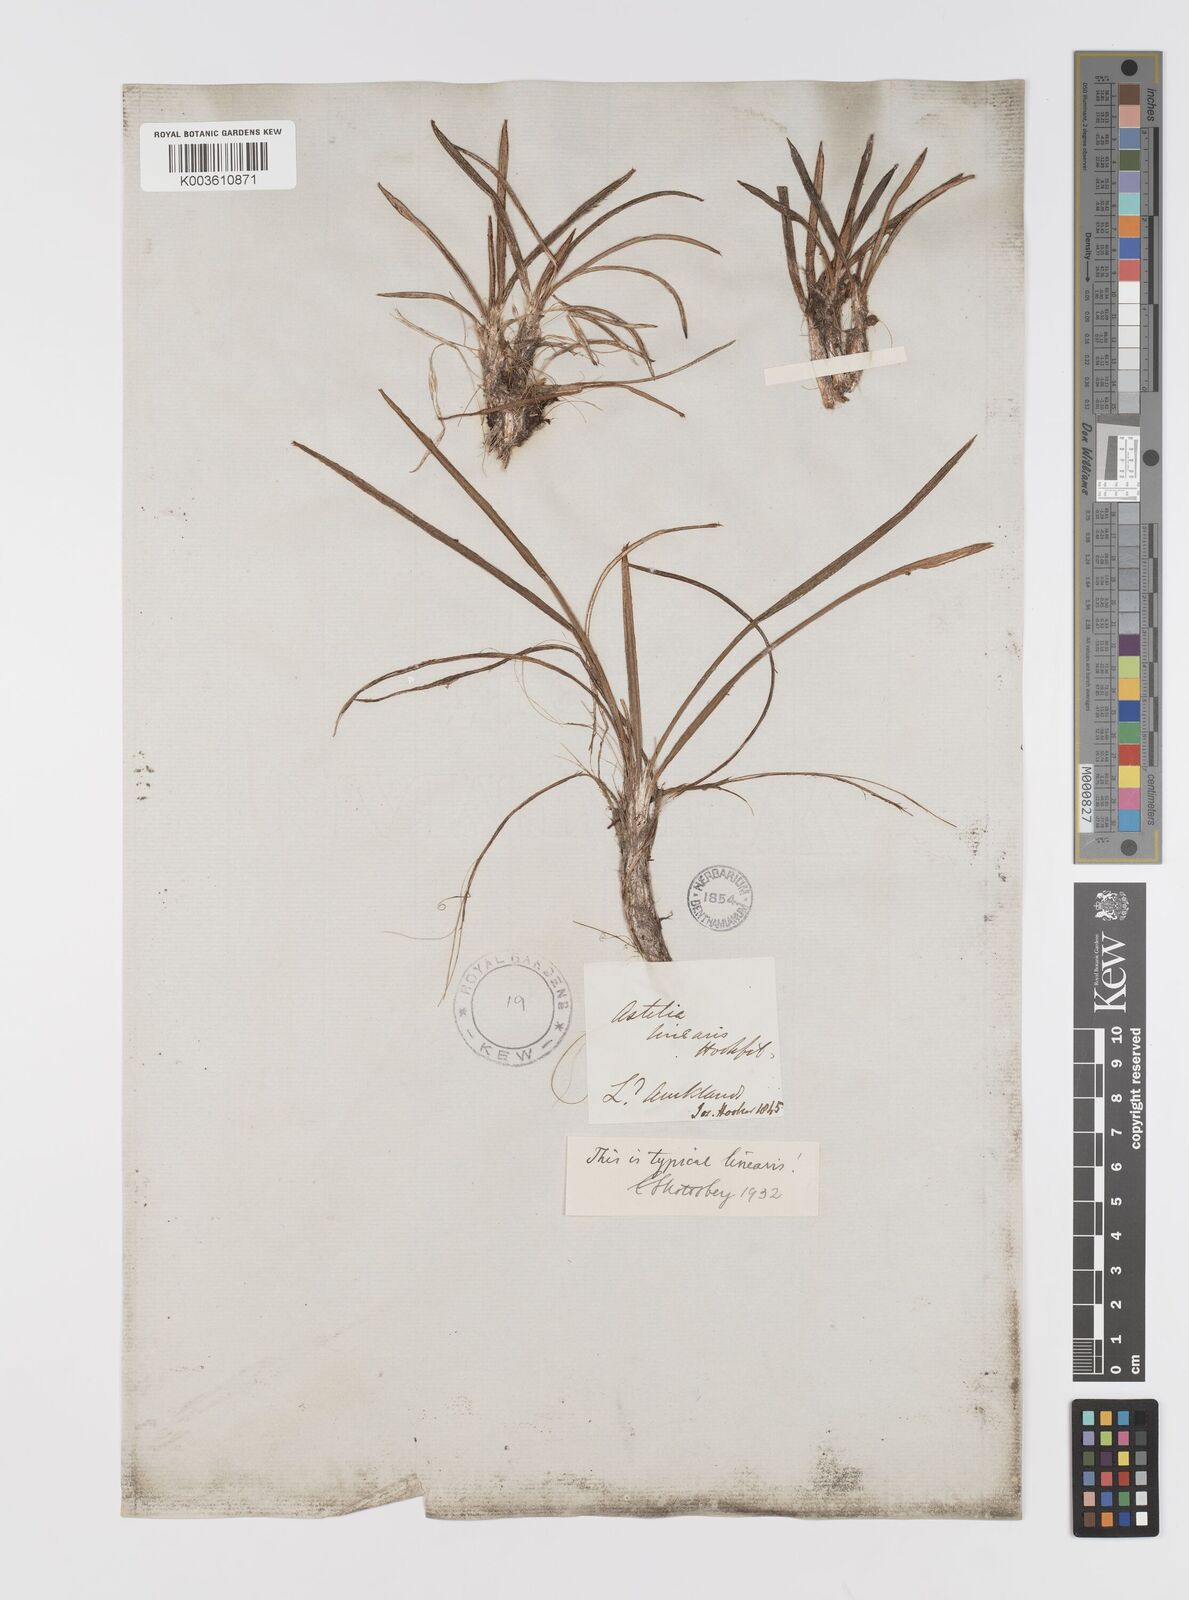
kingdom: Plantae
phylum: Tracheophyta
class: Liliopsida
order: Asparagales
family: Asteliaceae
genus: Astelia
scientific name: Astelia linearis
